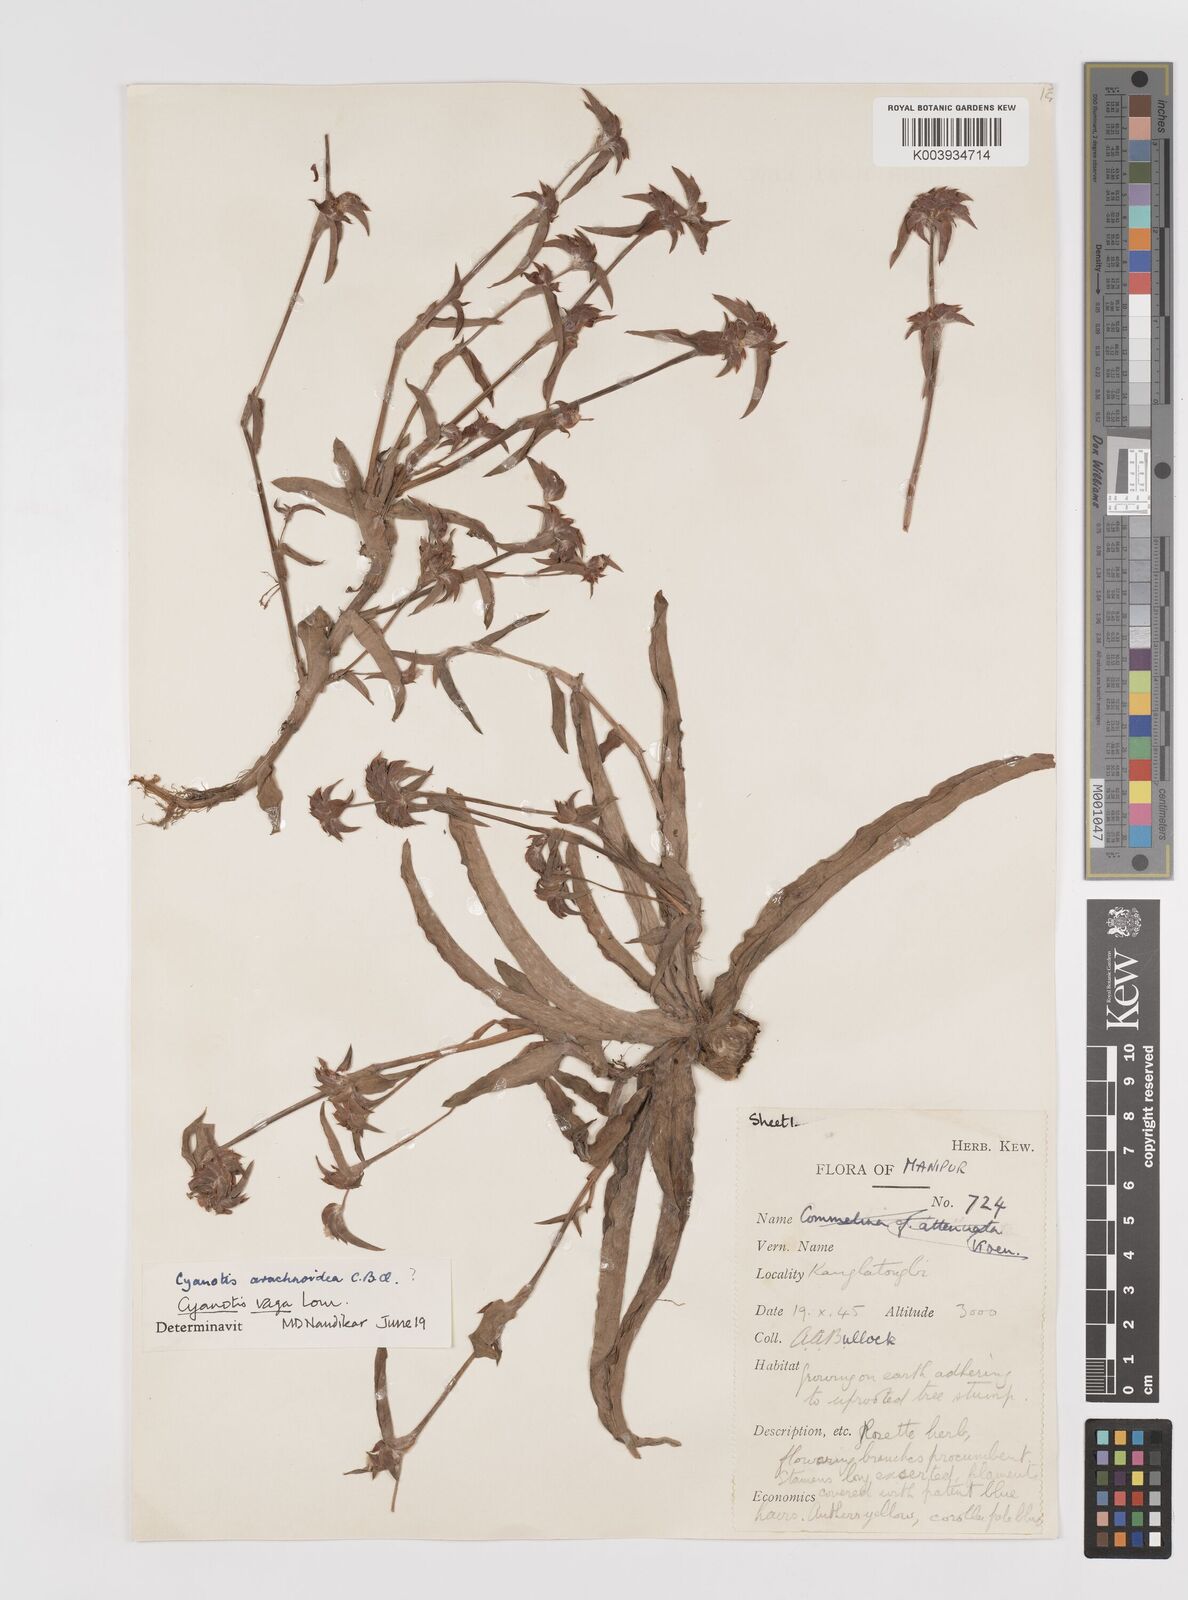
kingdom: Plantae
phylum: Tracheophyta
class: Liliopsida
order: Commelinales
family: Commelinaceae
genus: Cyanotis
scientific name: Cyanotis vaga
